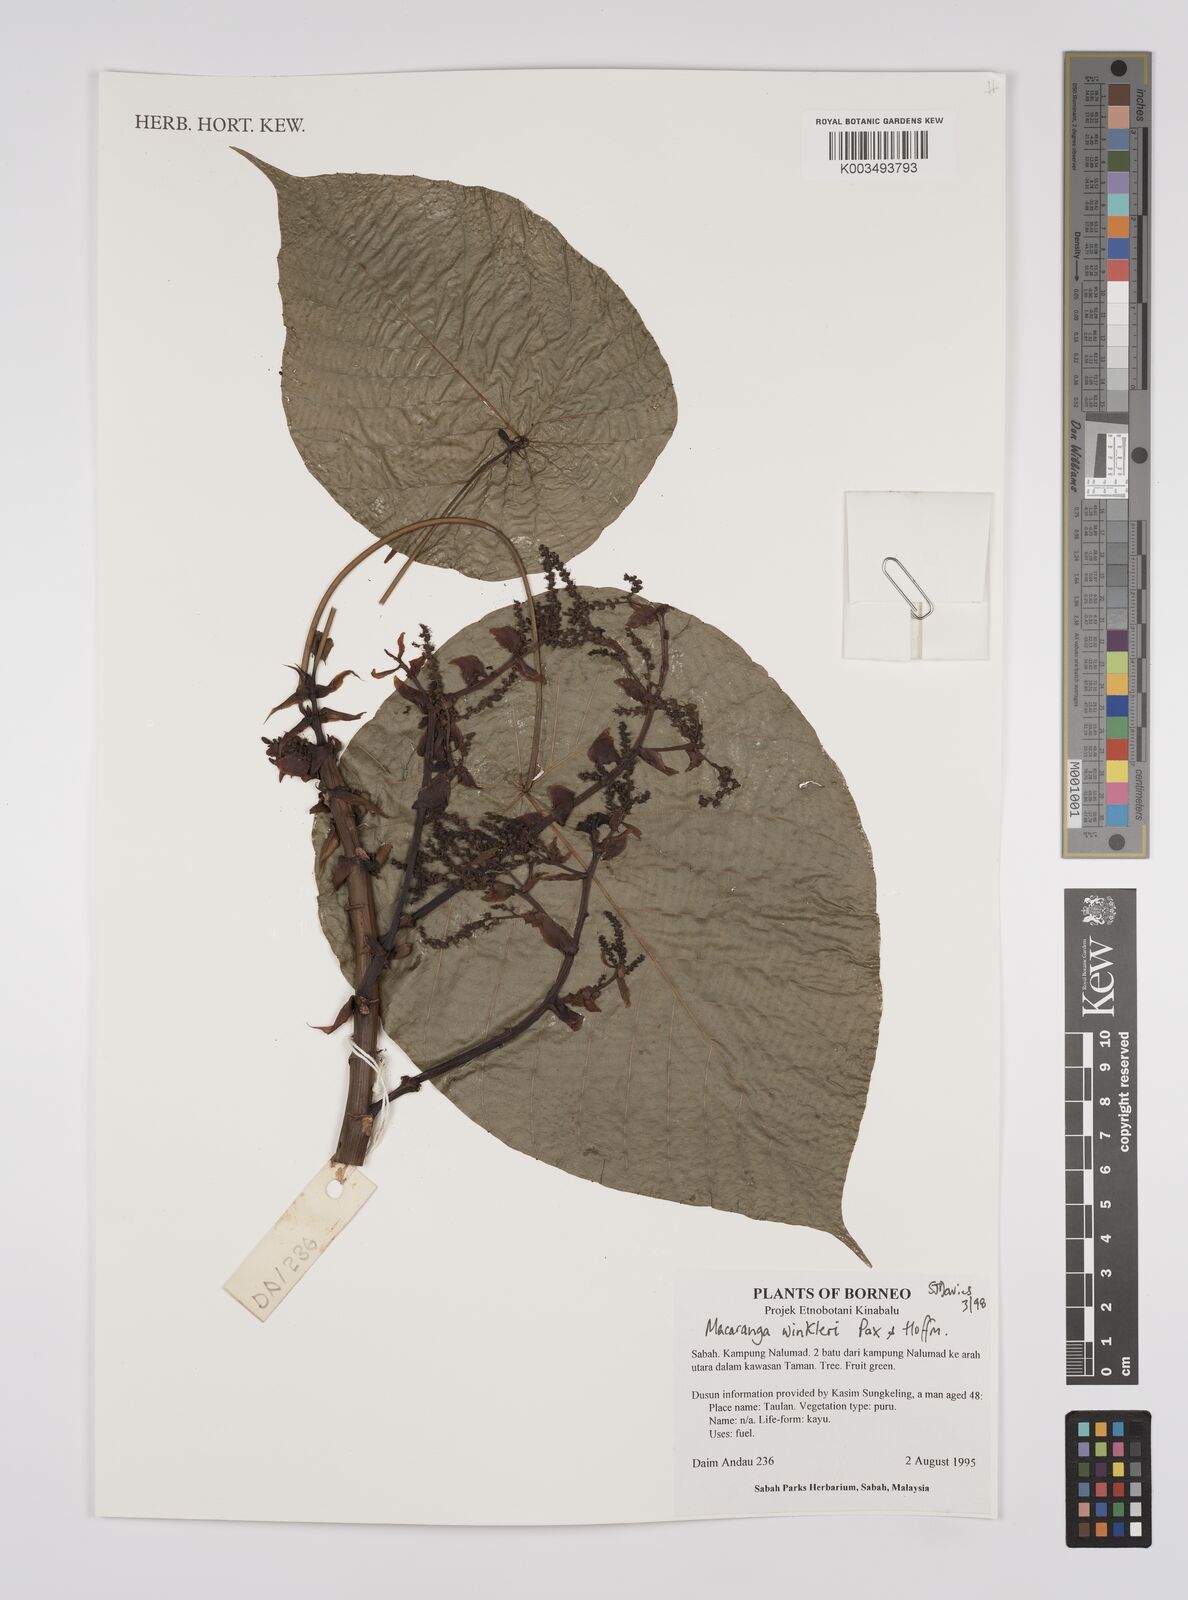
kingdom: Plantae
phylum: Tracheophyta
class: Magnoliopsida
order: Malpighiales
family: Euphorbiaceae
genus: Macaranga
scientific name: Macaranga winkleri
